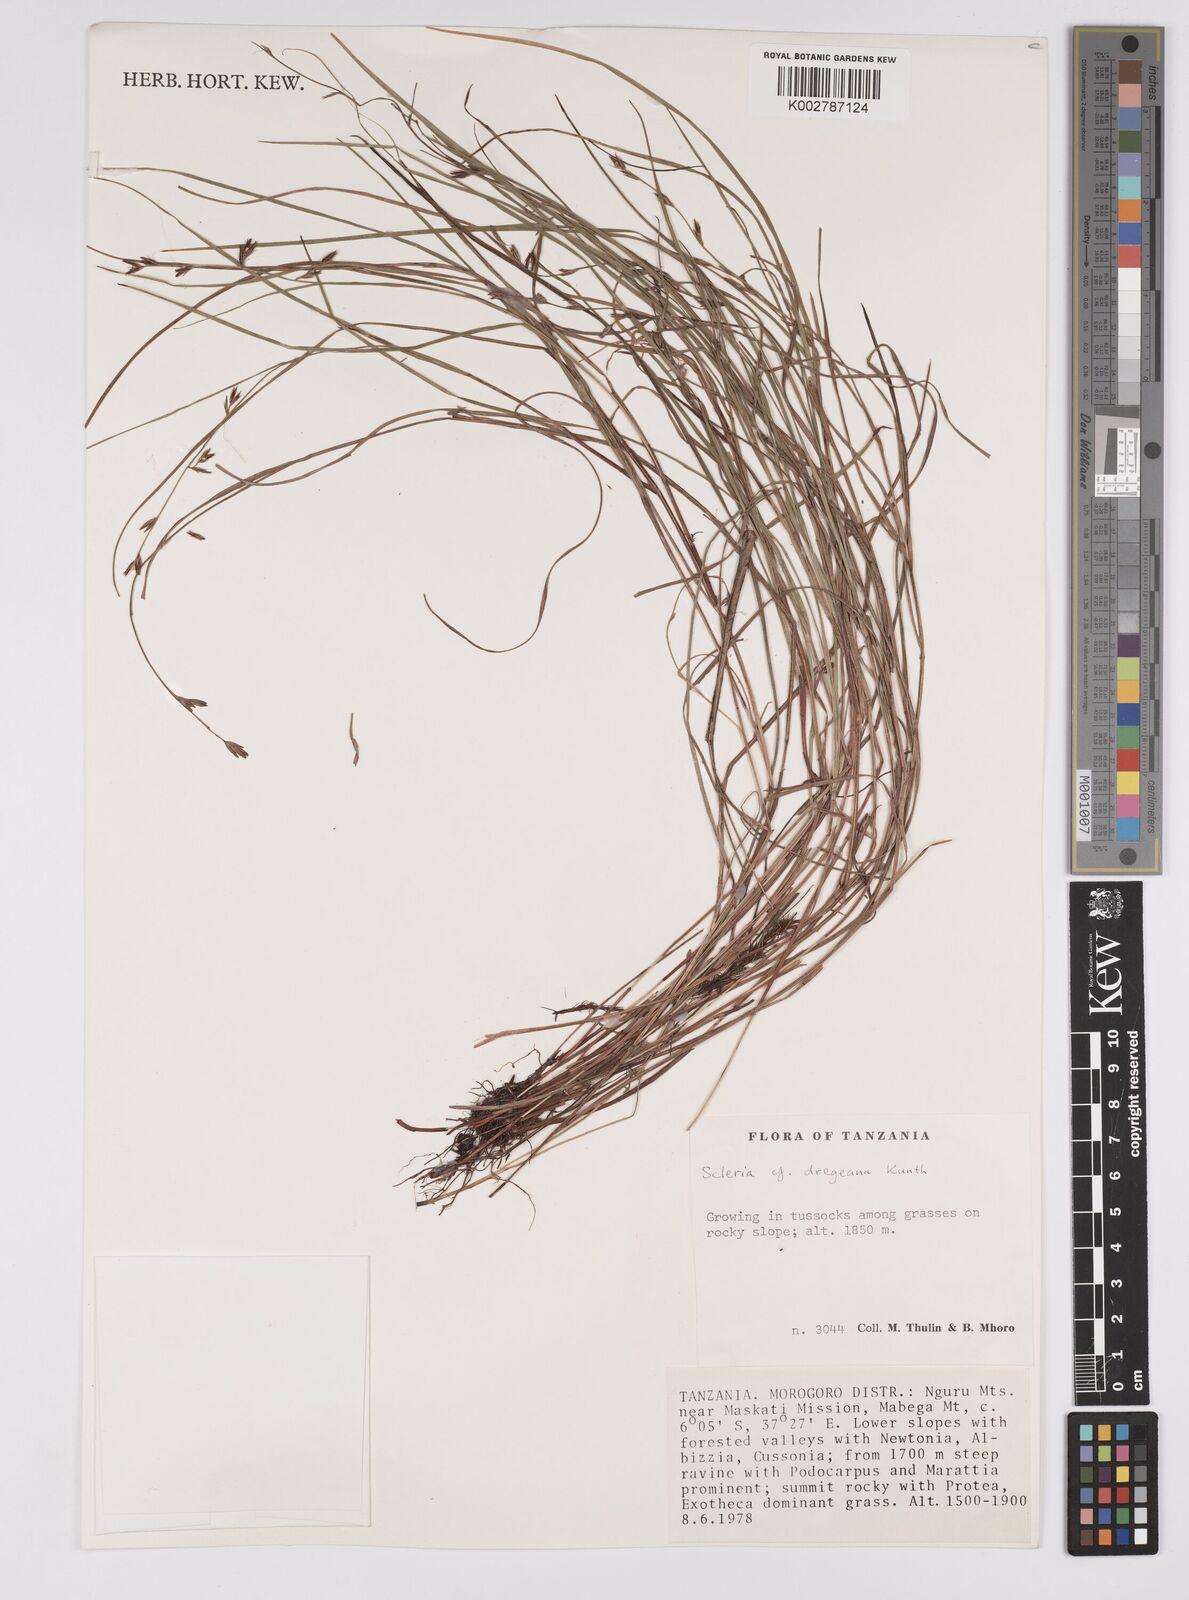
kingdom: Plantae
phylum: Tracheophyta
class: Liliopsida
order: Poales
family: Cyperaceae
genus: Scleria
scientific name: Scleria dregeana
